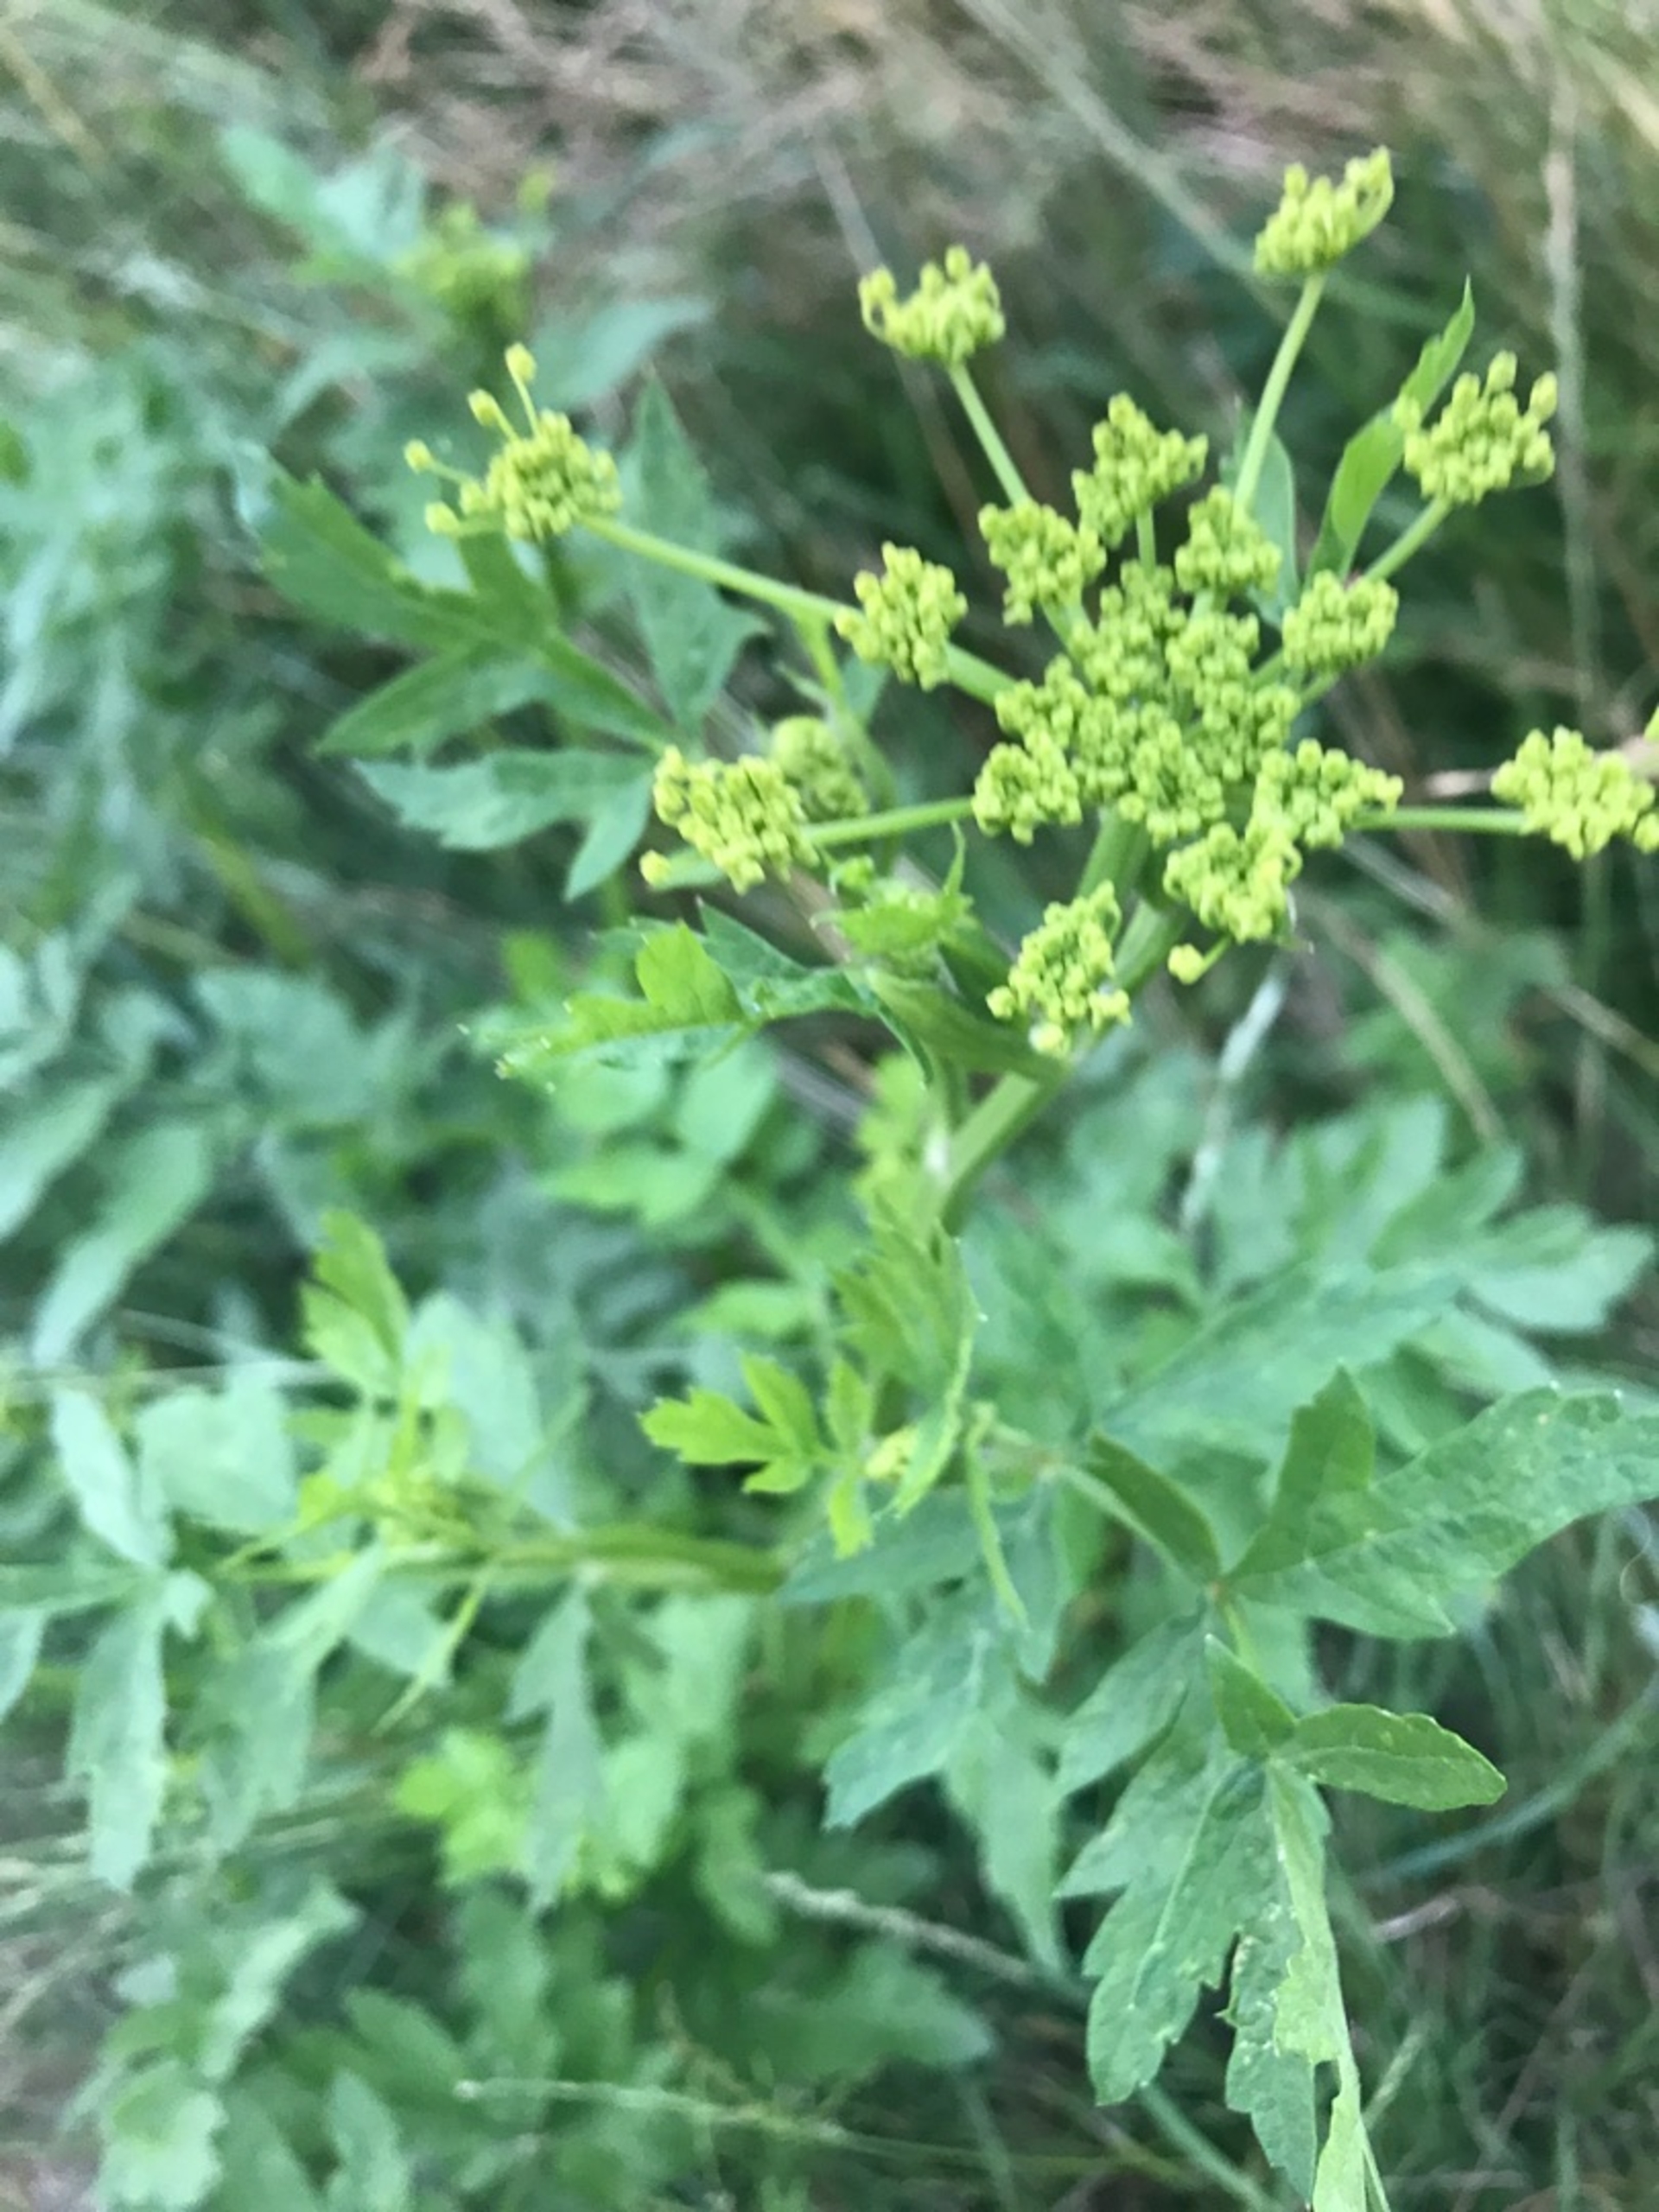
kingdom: Plantae
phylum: Tracheophyta
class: Magnoliopsida
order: Apiales
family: Apiaceae
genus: Pastinaca
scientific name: Pastinaca sativa
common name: Pastinak
